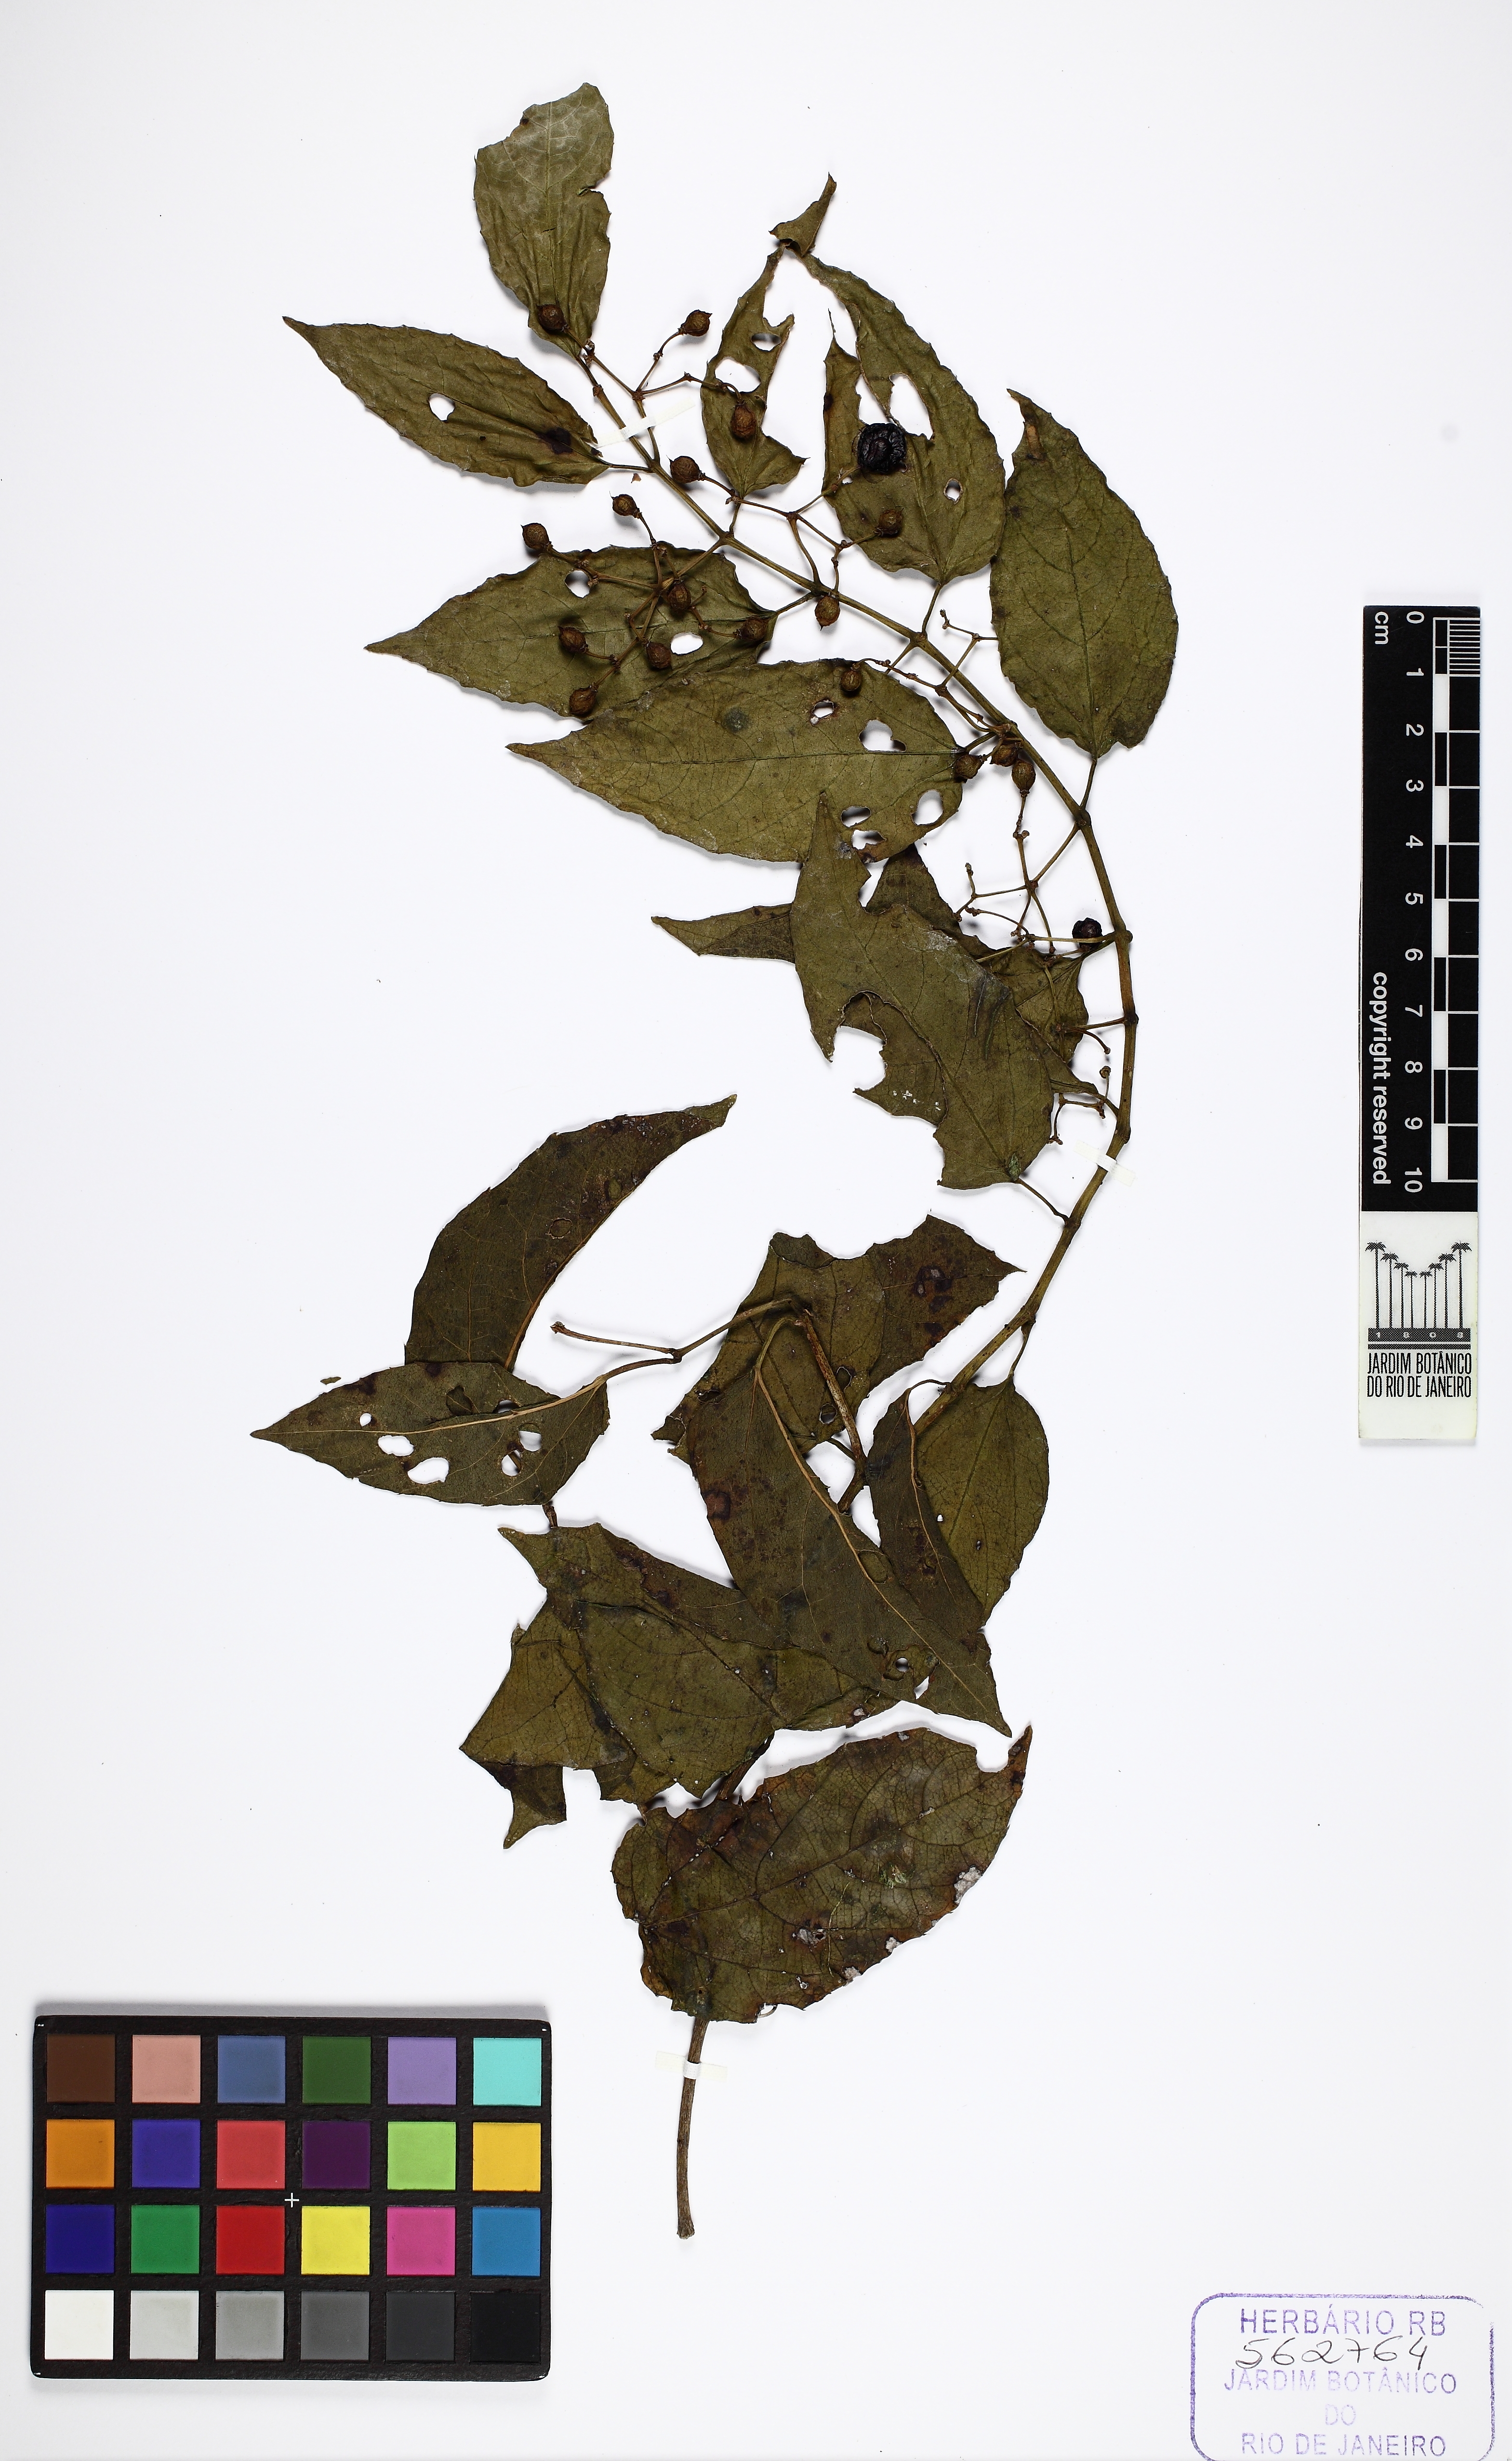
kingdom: Plantae
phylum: Tracheophyta
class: Magnoliopsida
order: Vitales
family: Vitaceae
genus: Cissus
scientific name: Cissus
